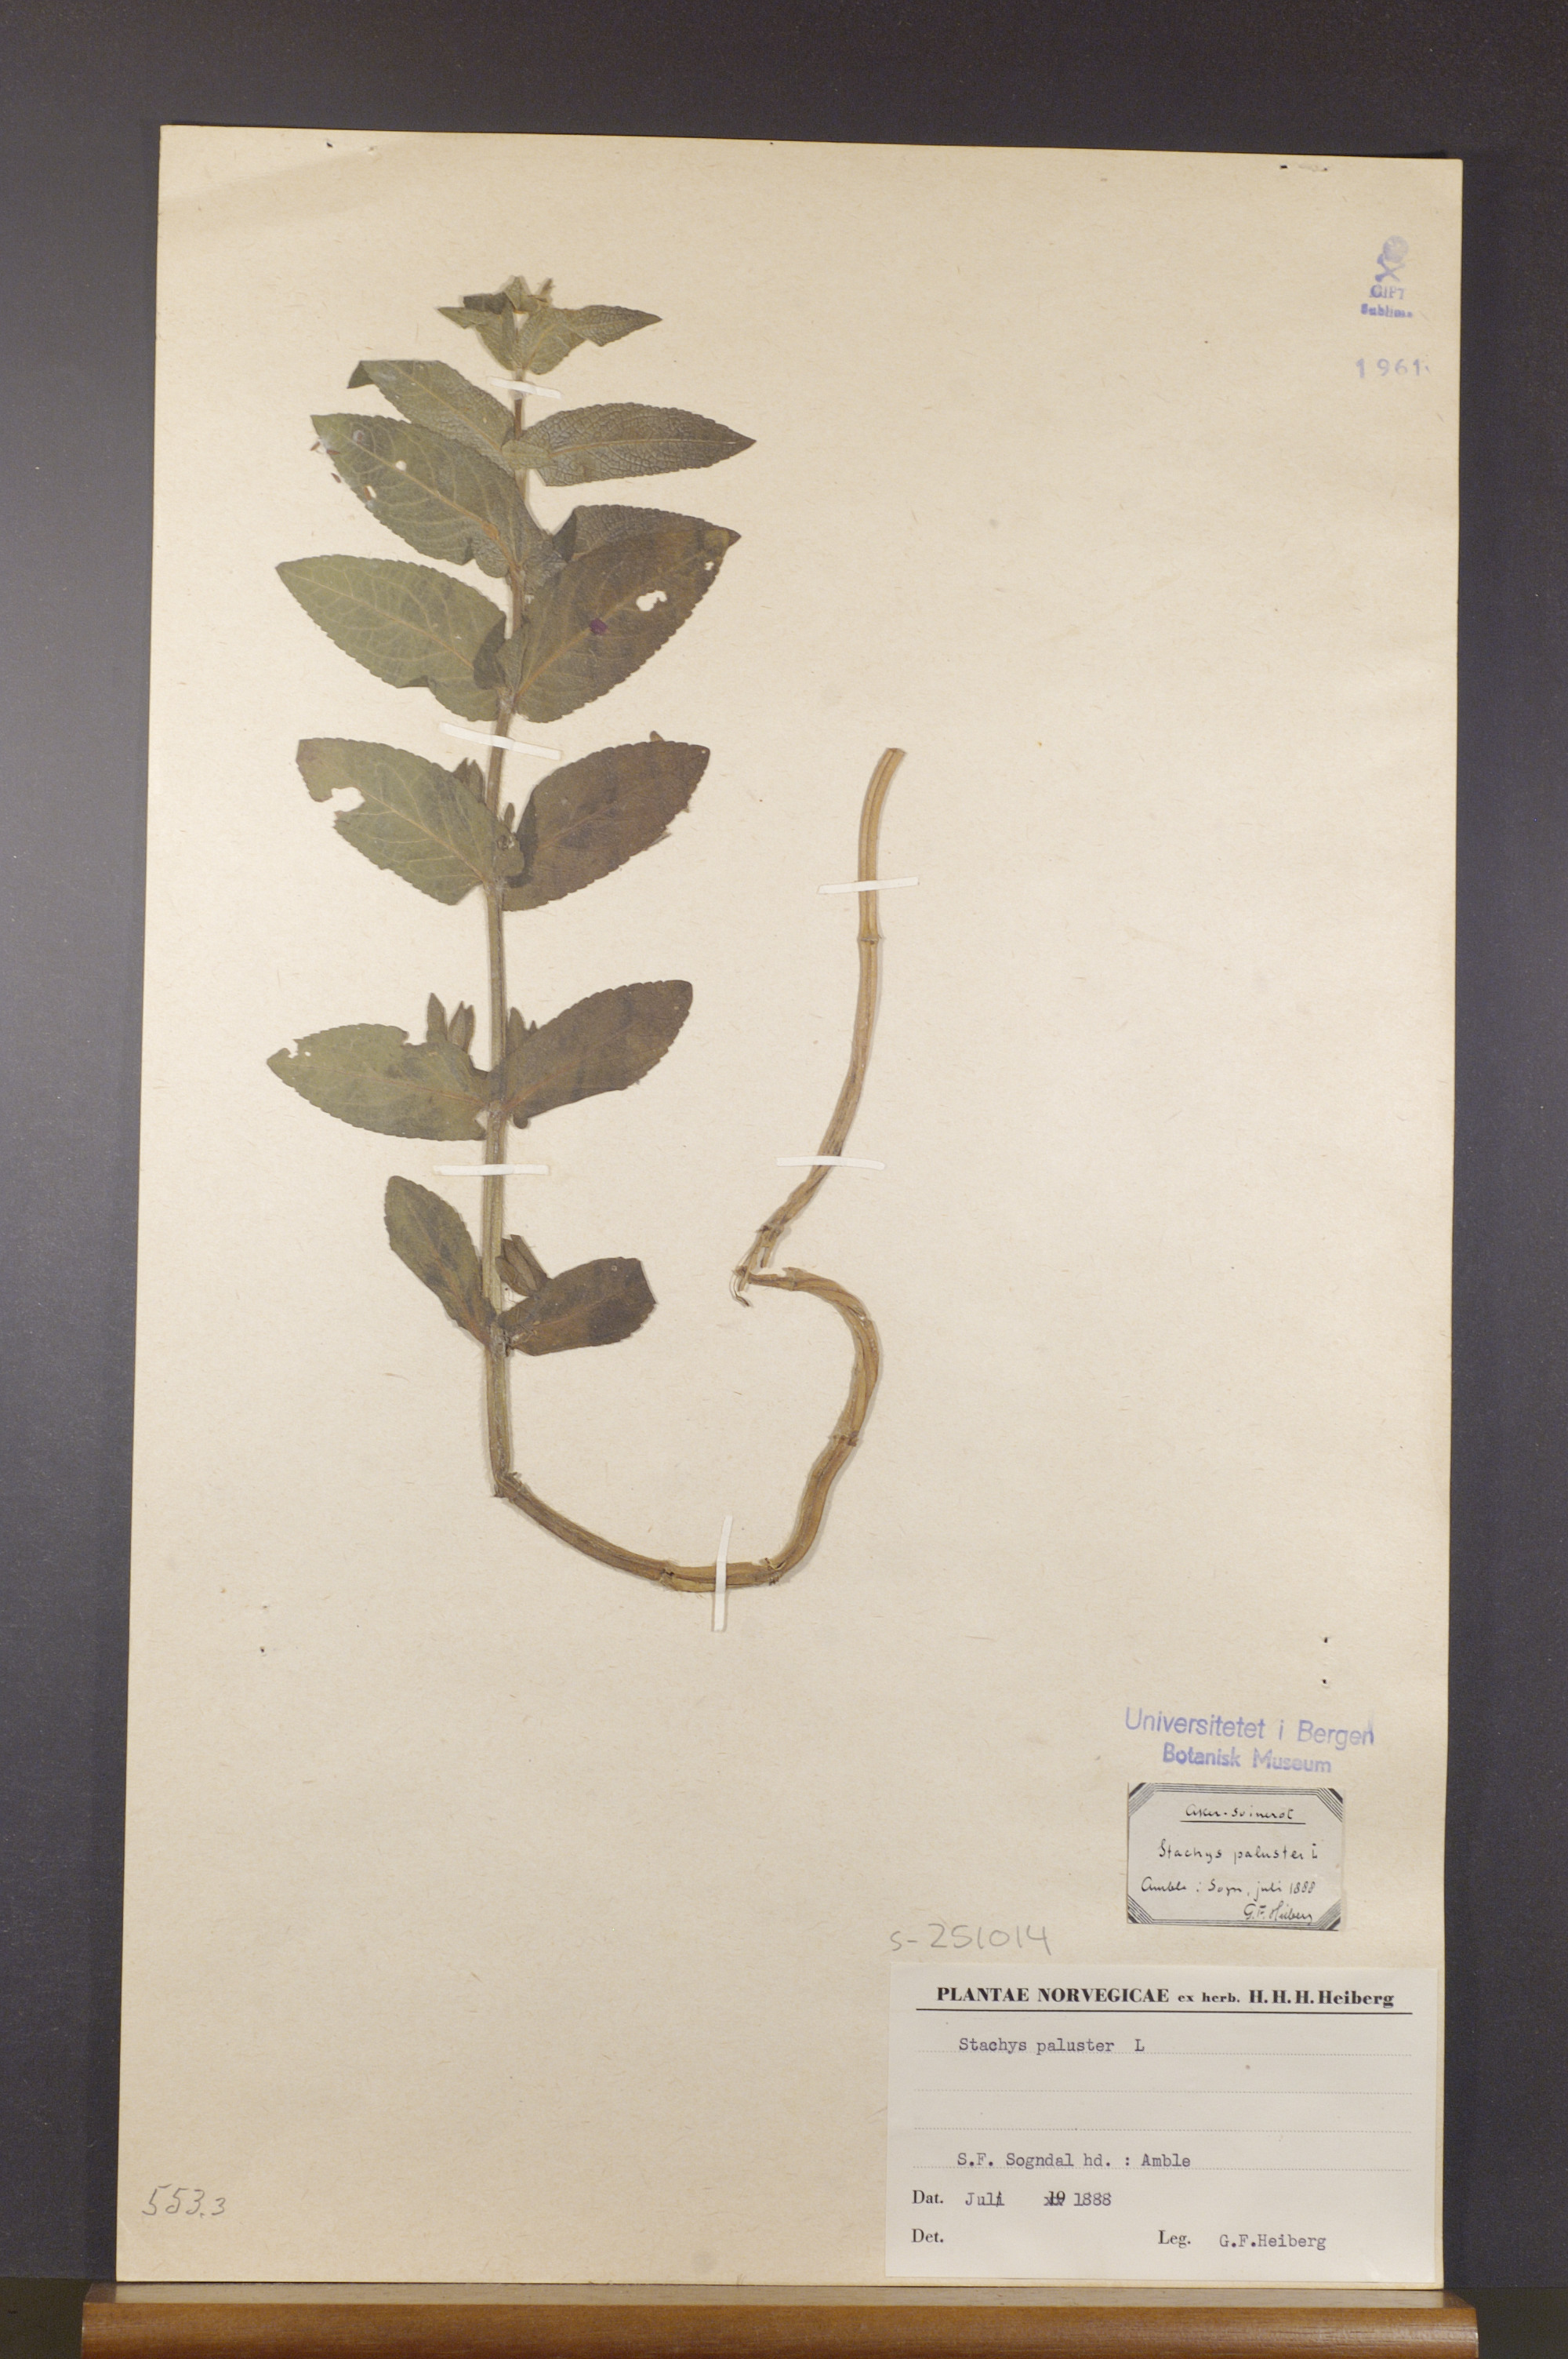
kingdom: Plantae
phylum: Tracheophyta
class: Magnoliopsida
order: Lamiales
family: Lamiaceae
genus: Stachys
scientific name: Stachys palustris
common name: Marsh woundwort
